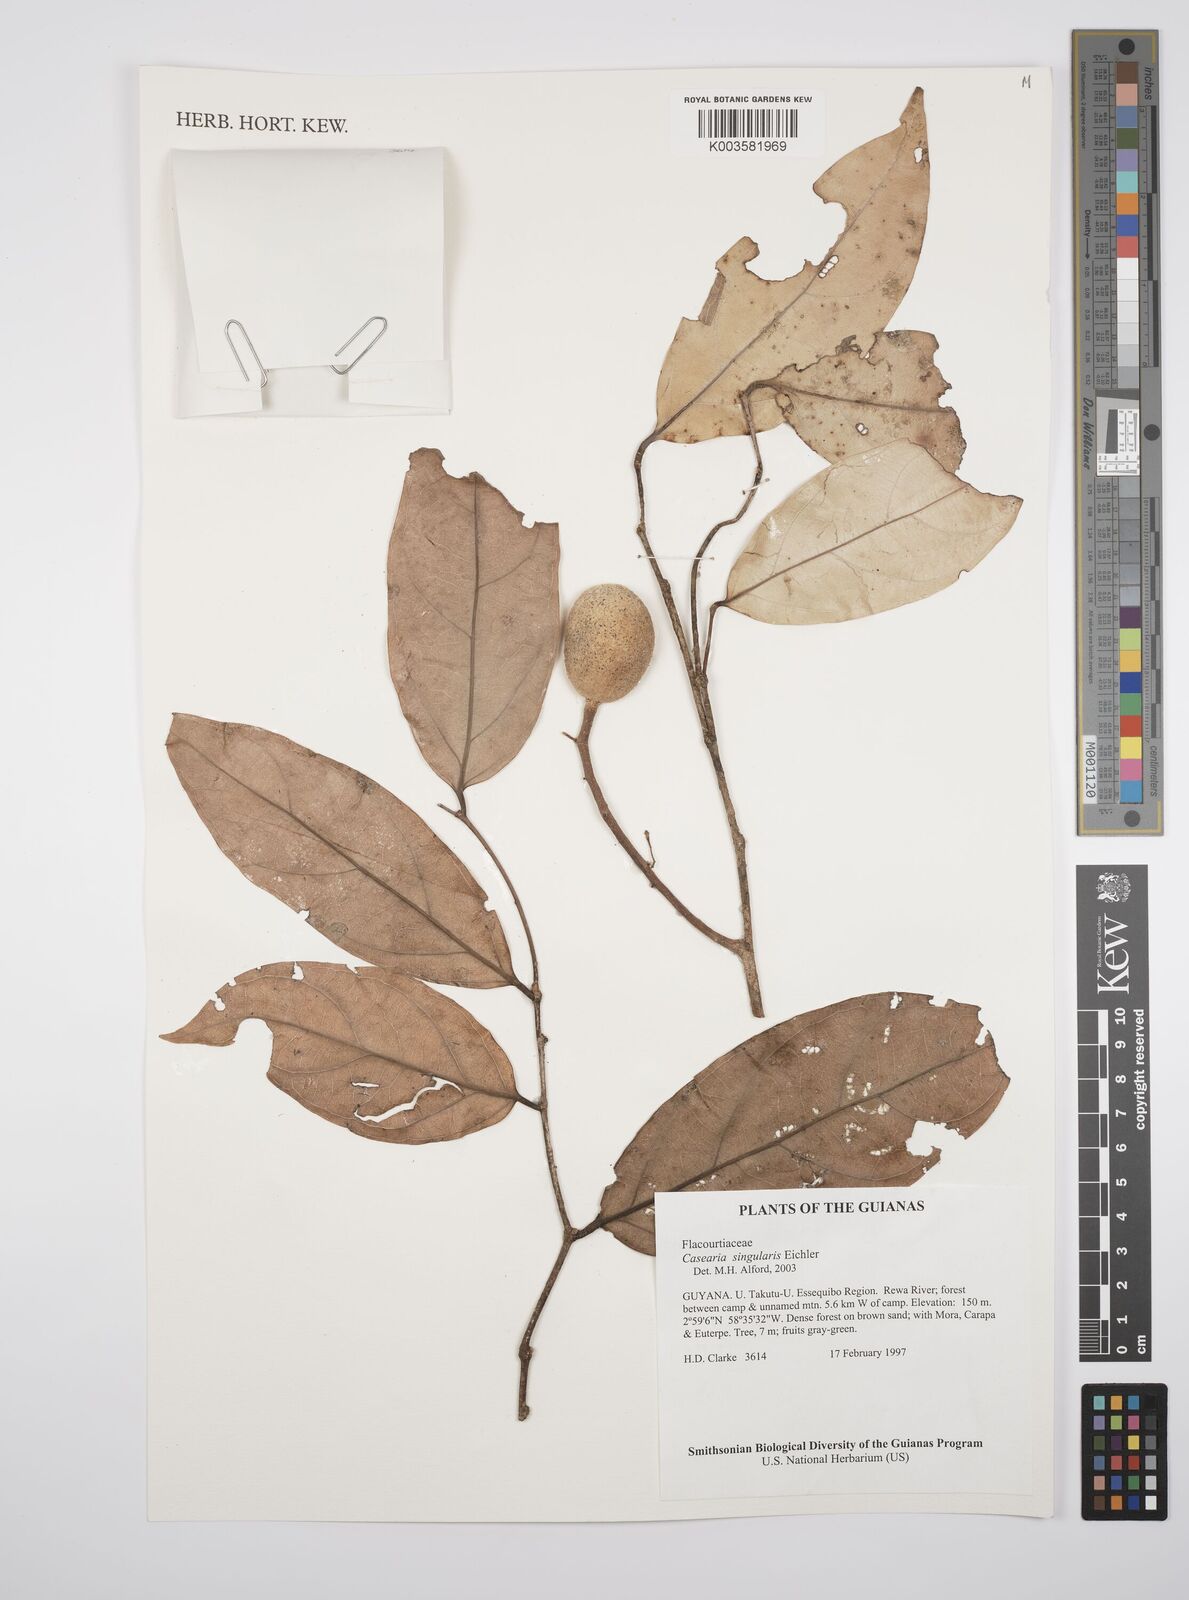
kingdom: Plantae
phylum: Tracheophyta
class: Magnoliopsida
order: Malpighiales
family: Salicaceae
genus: Casearia
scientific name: Casearia combaymensis
